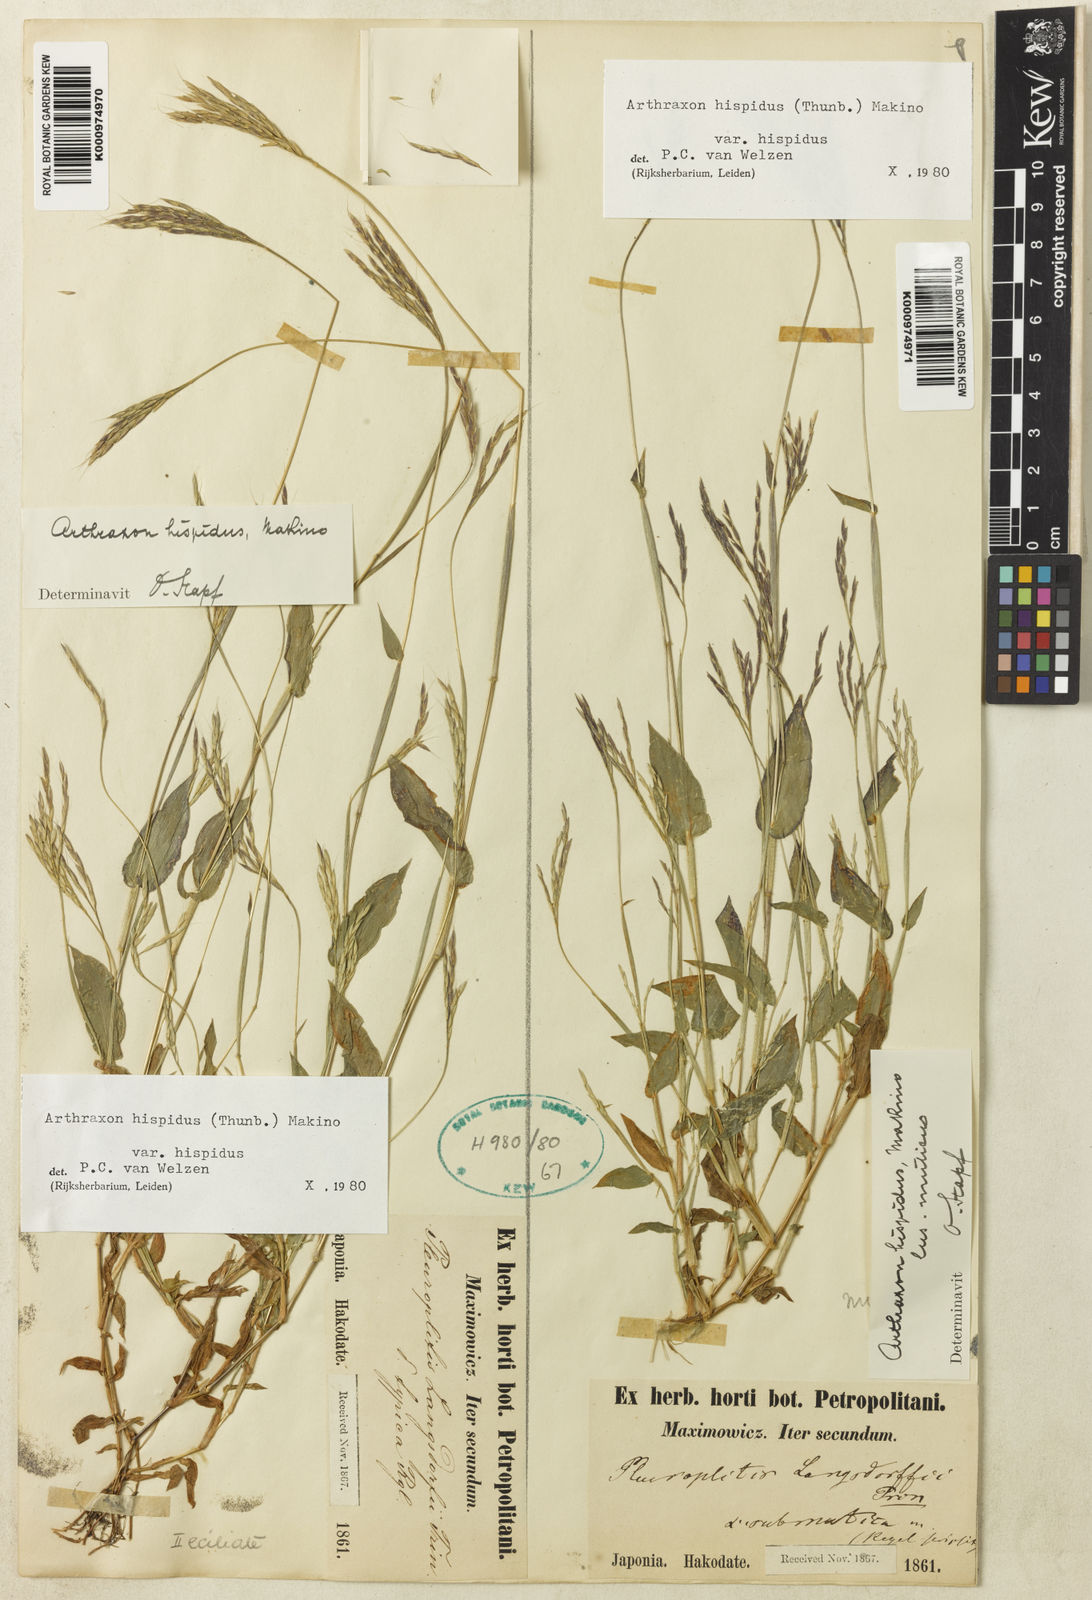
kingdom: Plantae
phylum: Tracheophyta
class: Liliopsida
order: Poales
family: Poaceae
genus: Arthraxon
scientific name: Arthraxon hispidus
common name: Small carpgrass
